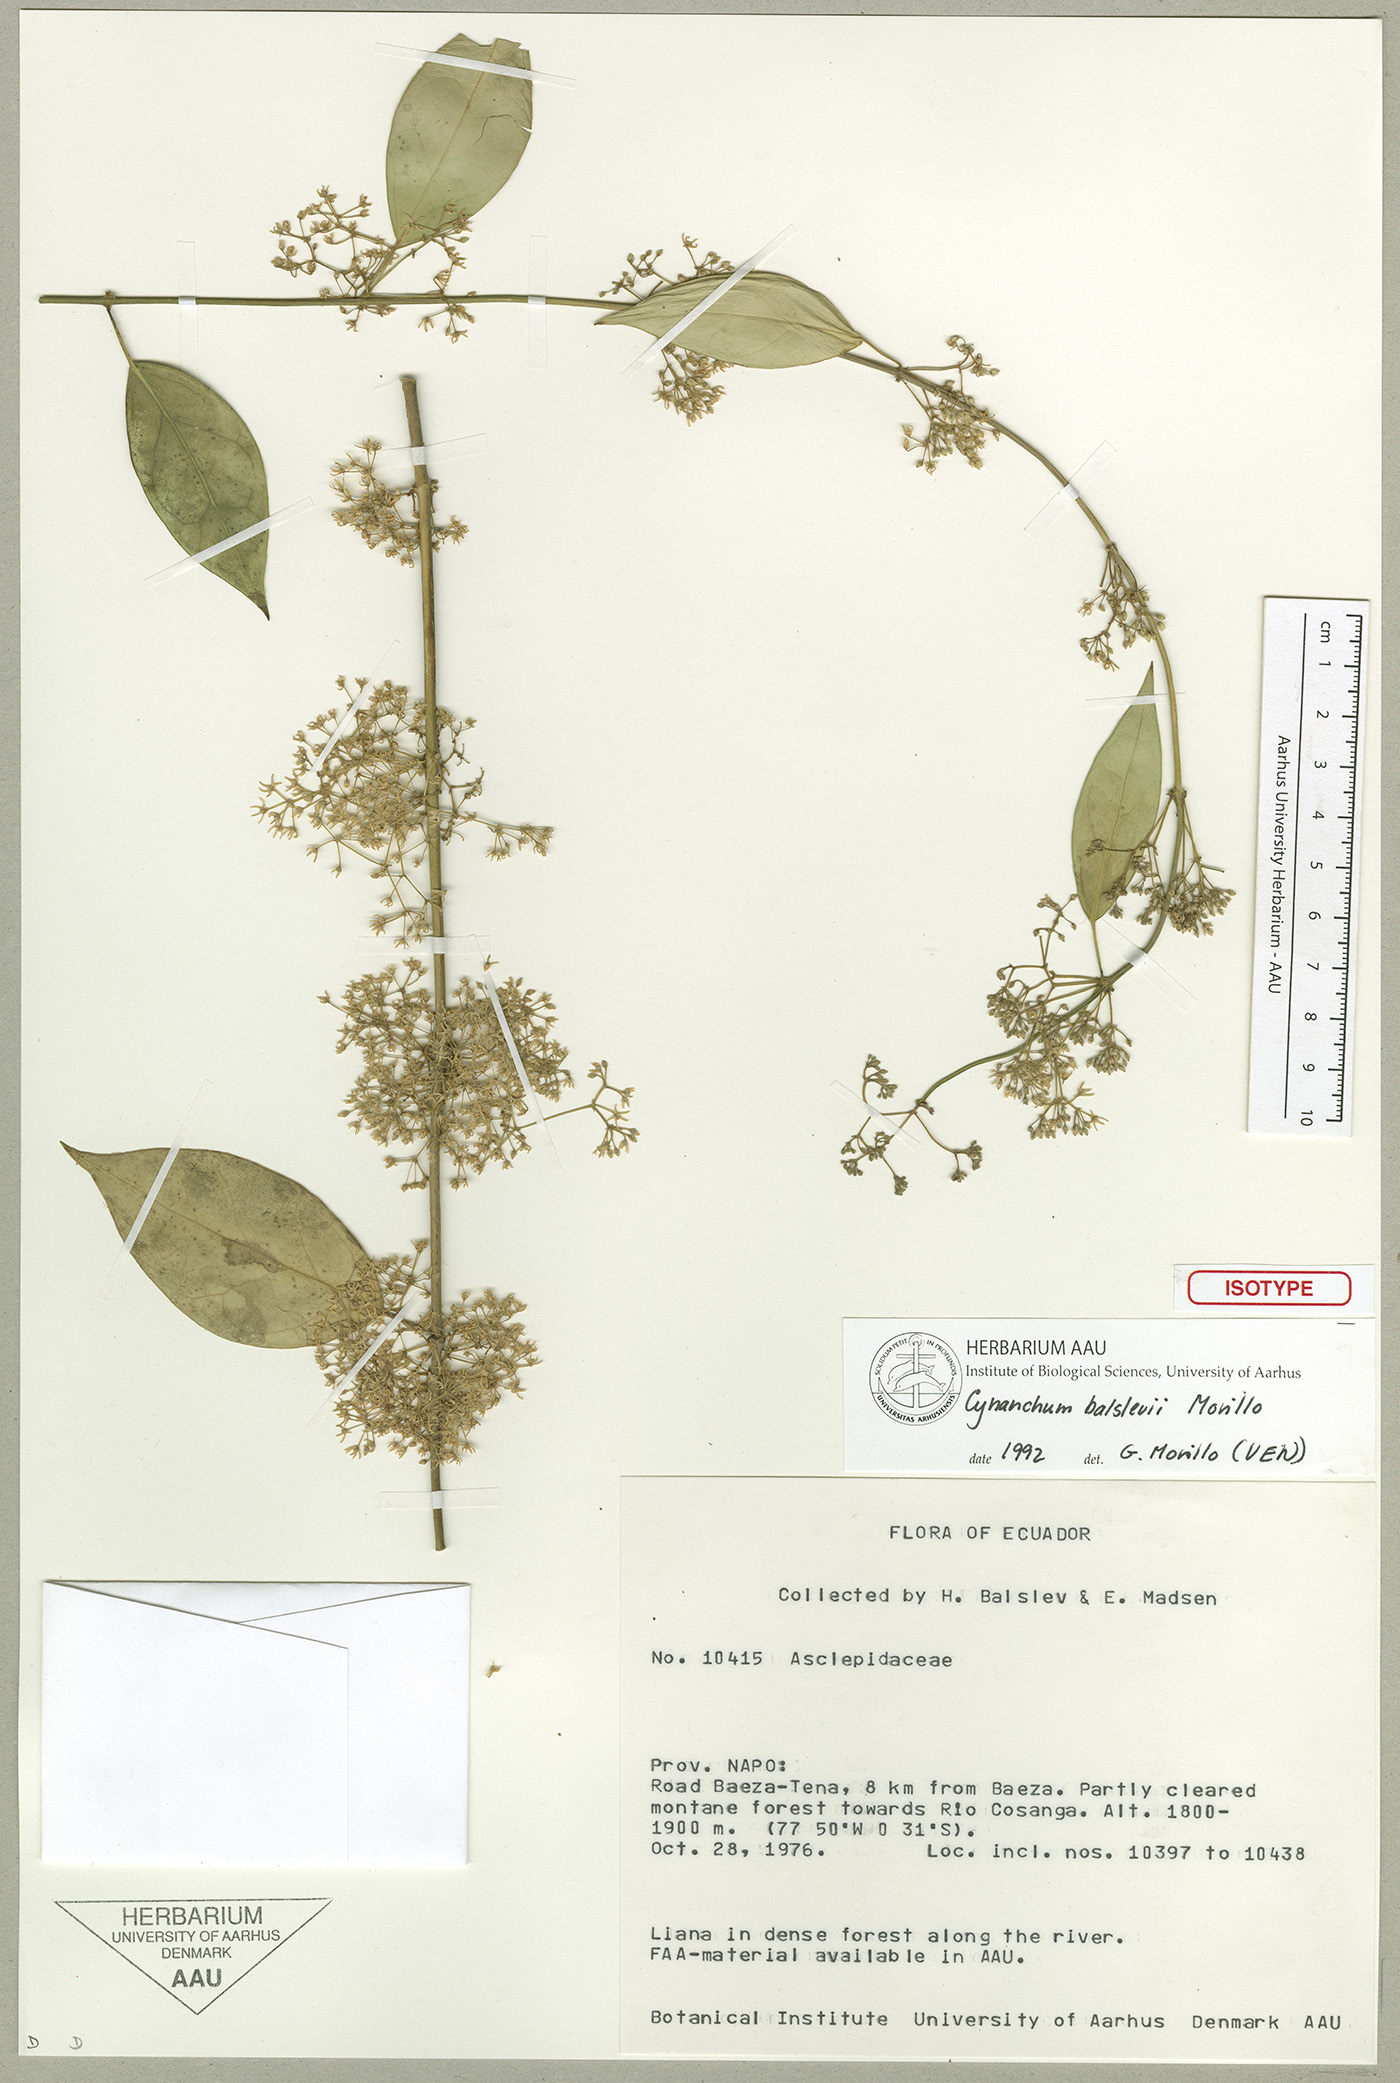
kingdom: Plantae
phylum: Tracheophyta
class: Magnoliopsida
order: Gentianales
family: Apocynaceae
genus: Jobinia
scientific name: Jobinia balslevii
